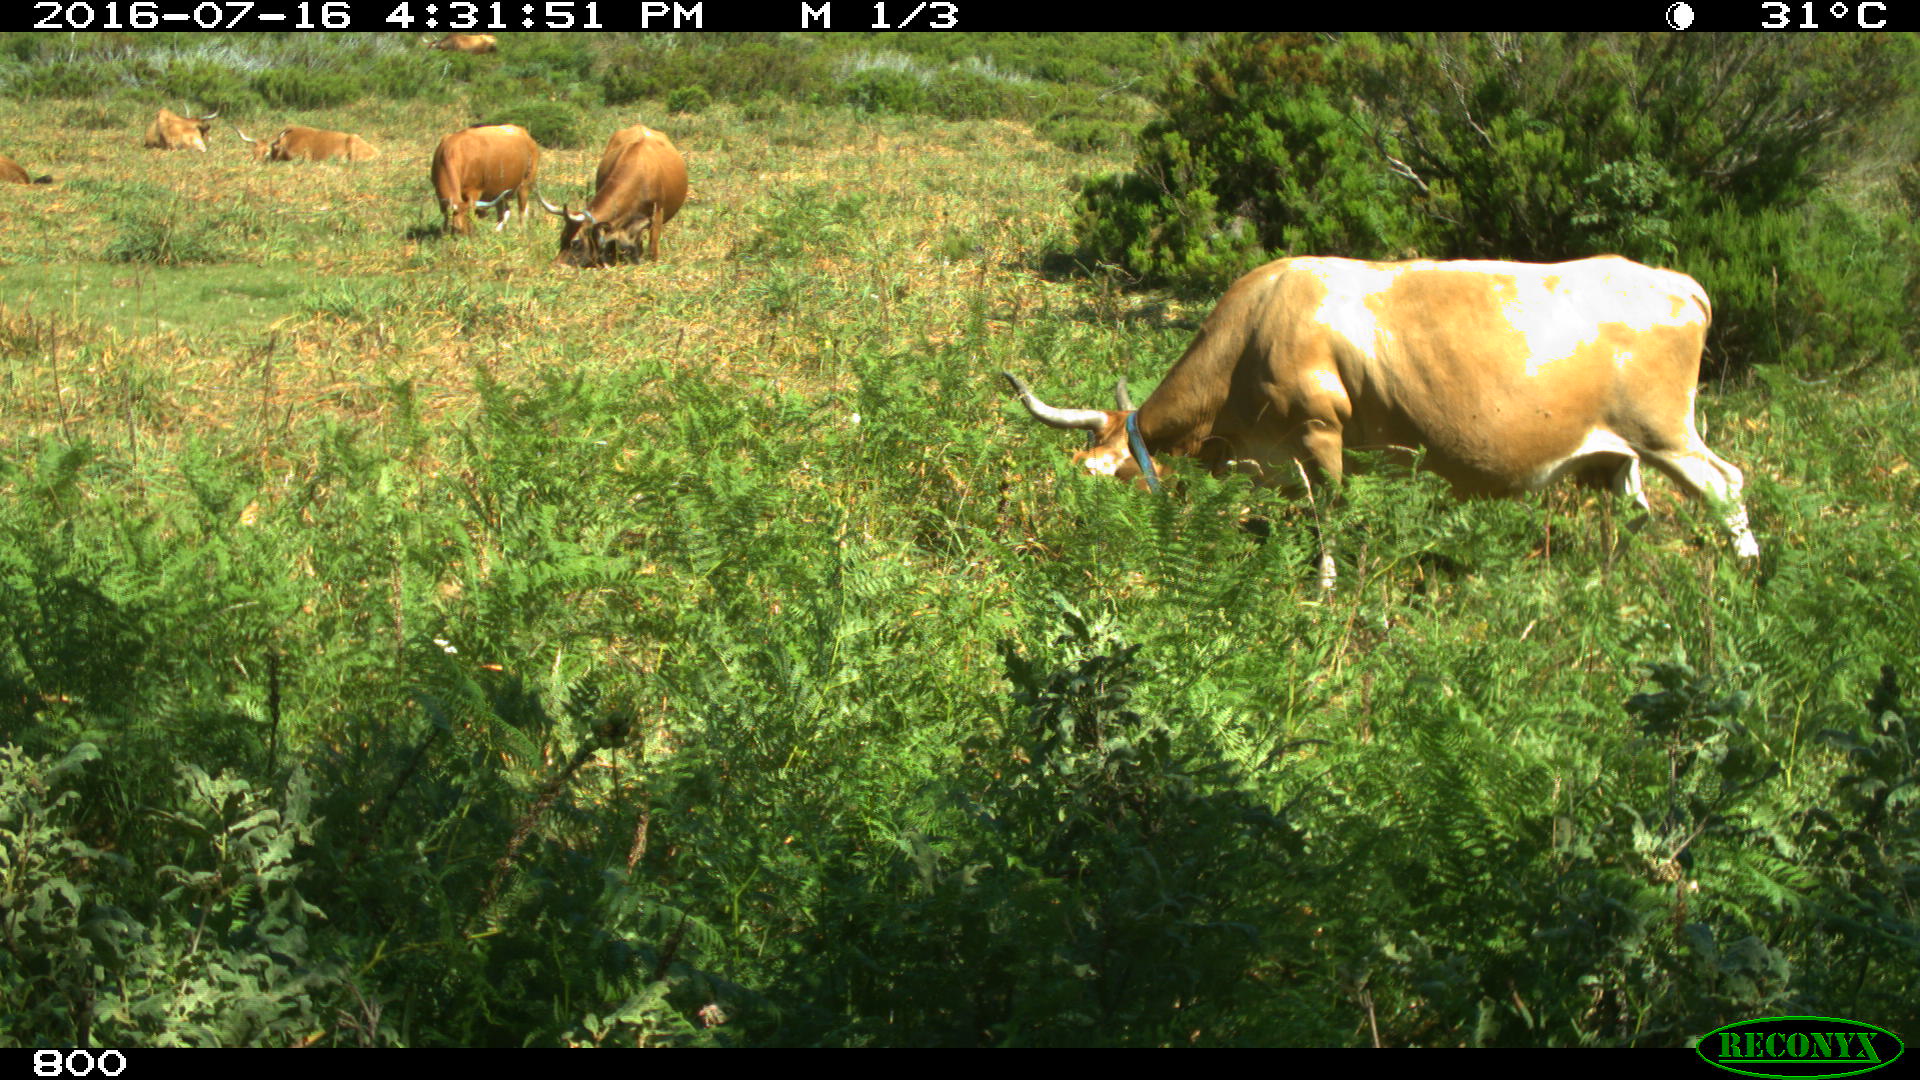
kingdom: Animalia
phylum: Chordata
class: Mammalia
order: Artiodactyla
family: Bovidae
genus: Bos
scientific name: Bos taurus
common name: Domesticated cattle
